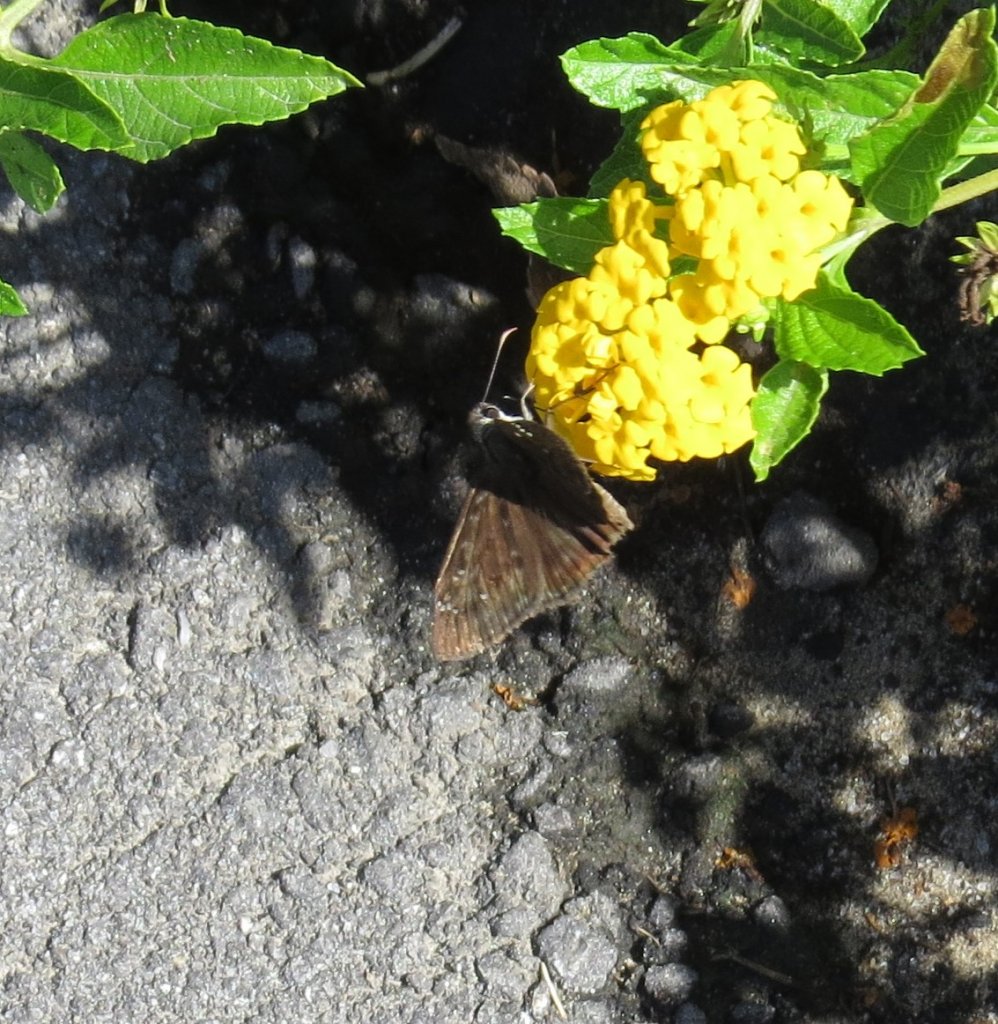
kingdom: Animalia
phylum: Arthropoda
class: Insecta
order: Lepidoptera
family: Hesperiidae
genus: Gesta
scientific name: Gesta
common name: Horace's Duskywing
